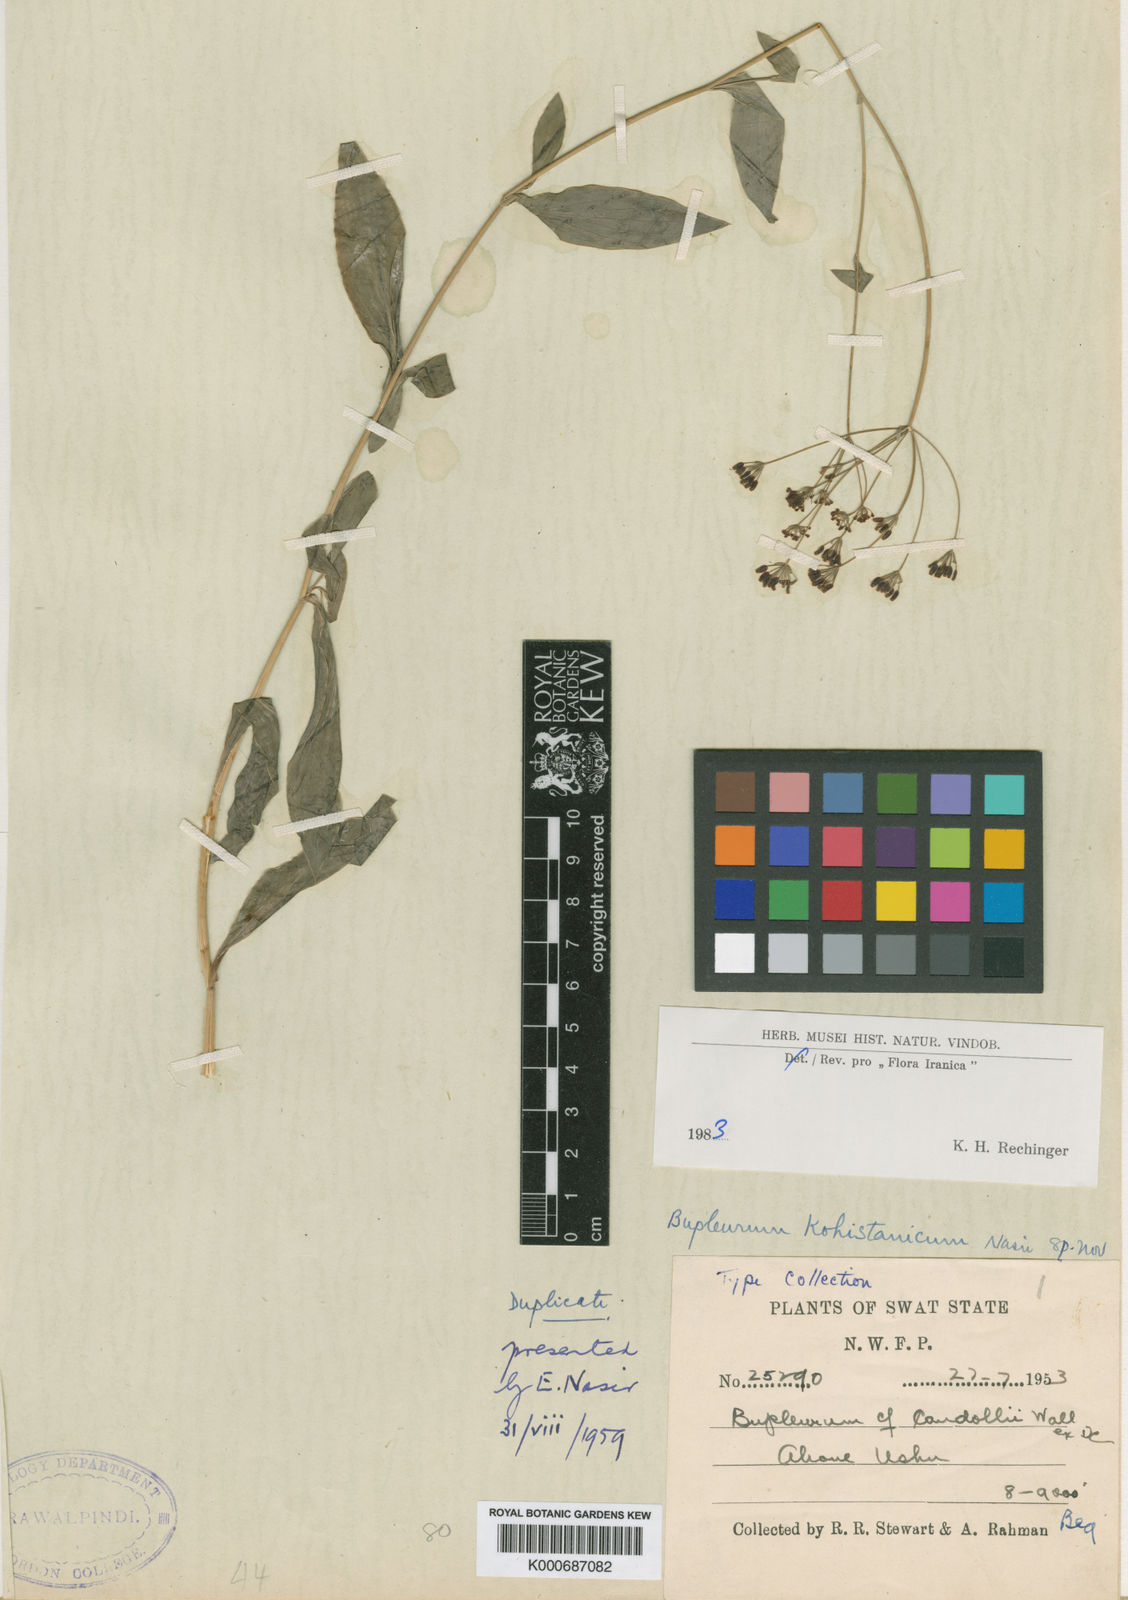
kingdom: Plantae
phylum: Tracheophyta
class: Magnoliopsida
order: Apiales
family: Apiaceae
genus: Bupleurum
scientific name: Bupleurum kohistanicum
